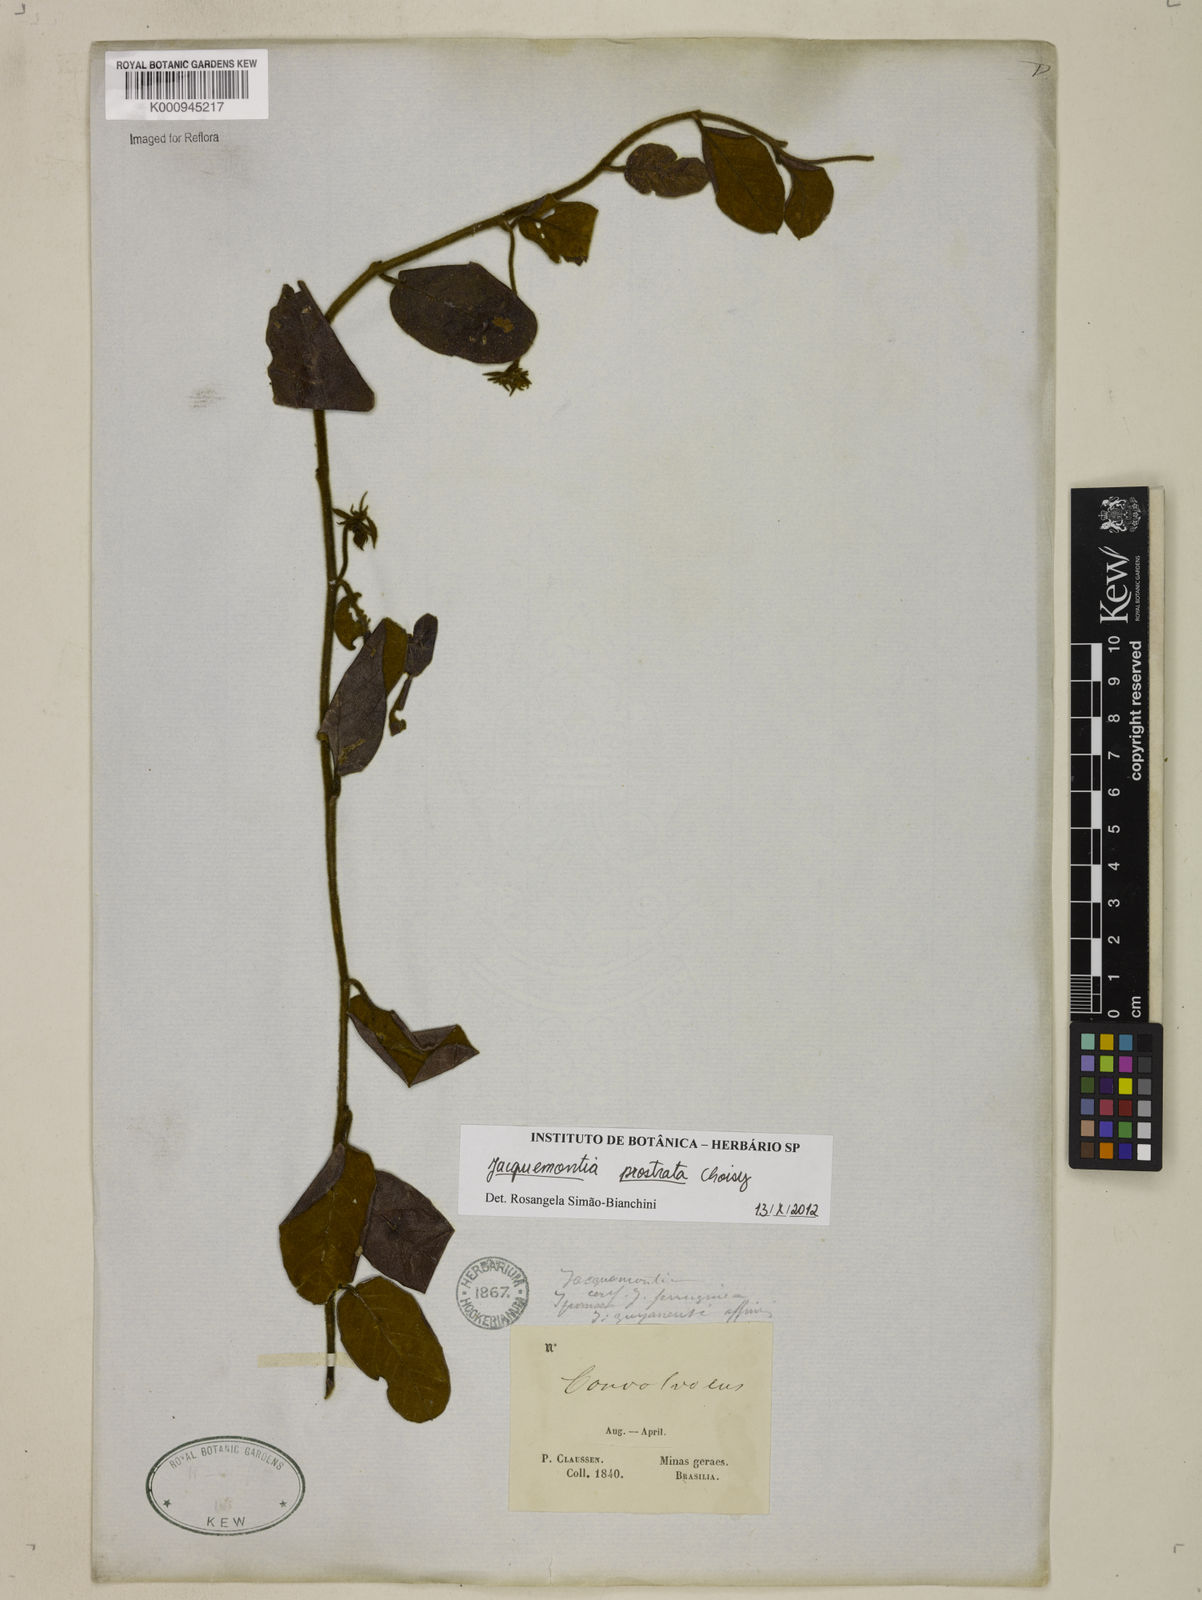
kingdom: Plantae
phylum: Tracheophyta
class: Magnoliopsida
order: Solanales
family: Convolvulaceae
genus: Jacquemontia
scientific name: Jacquemontia prostrata
